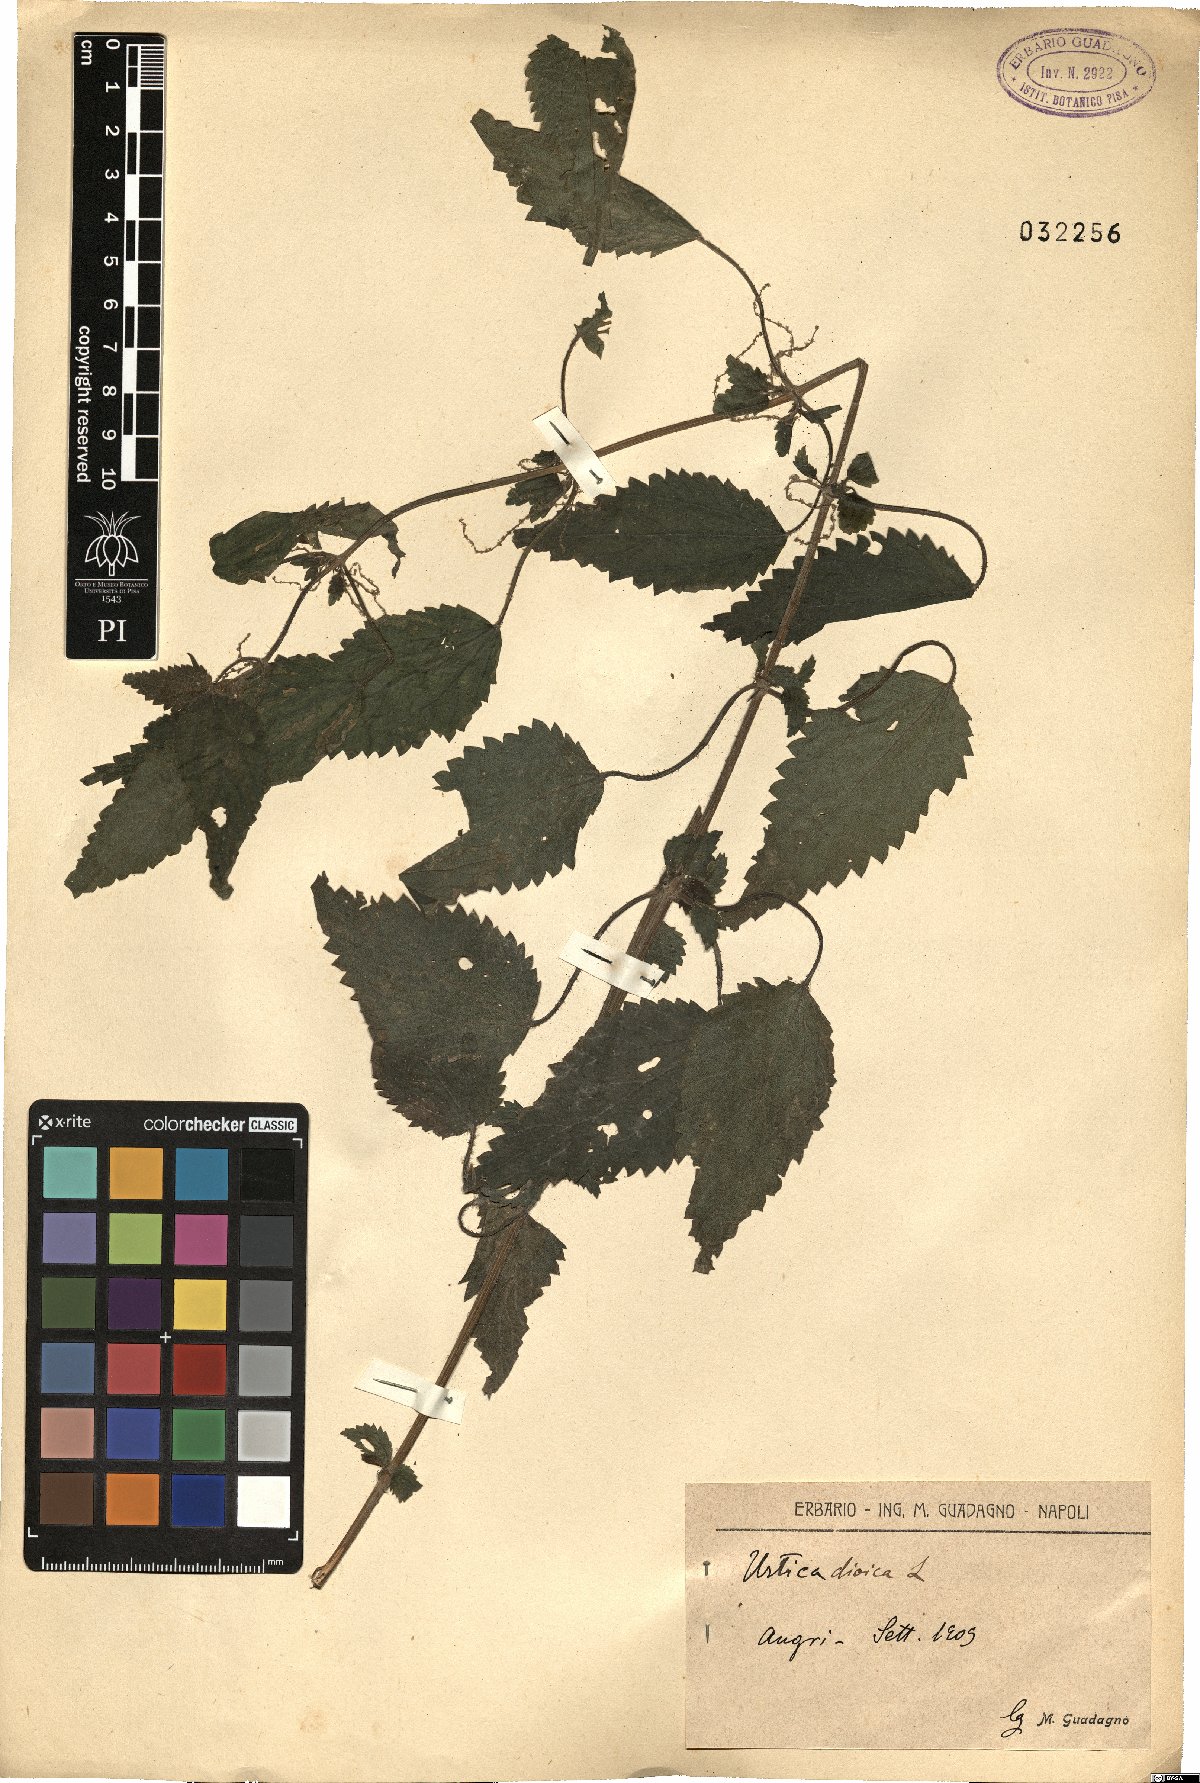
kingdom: Plantae
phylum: Tracheophyta
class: Magnoliopsida
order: Rosales
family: Urticaceae
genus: Urtica
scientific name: Urtica dioica
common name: Common nettle
